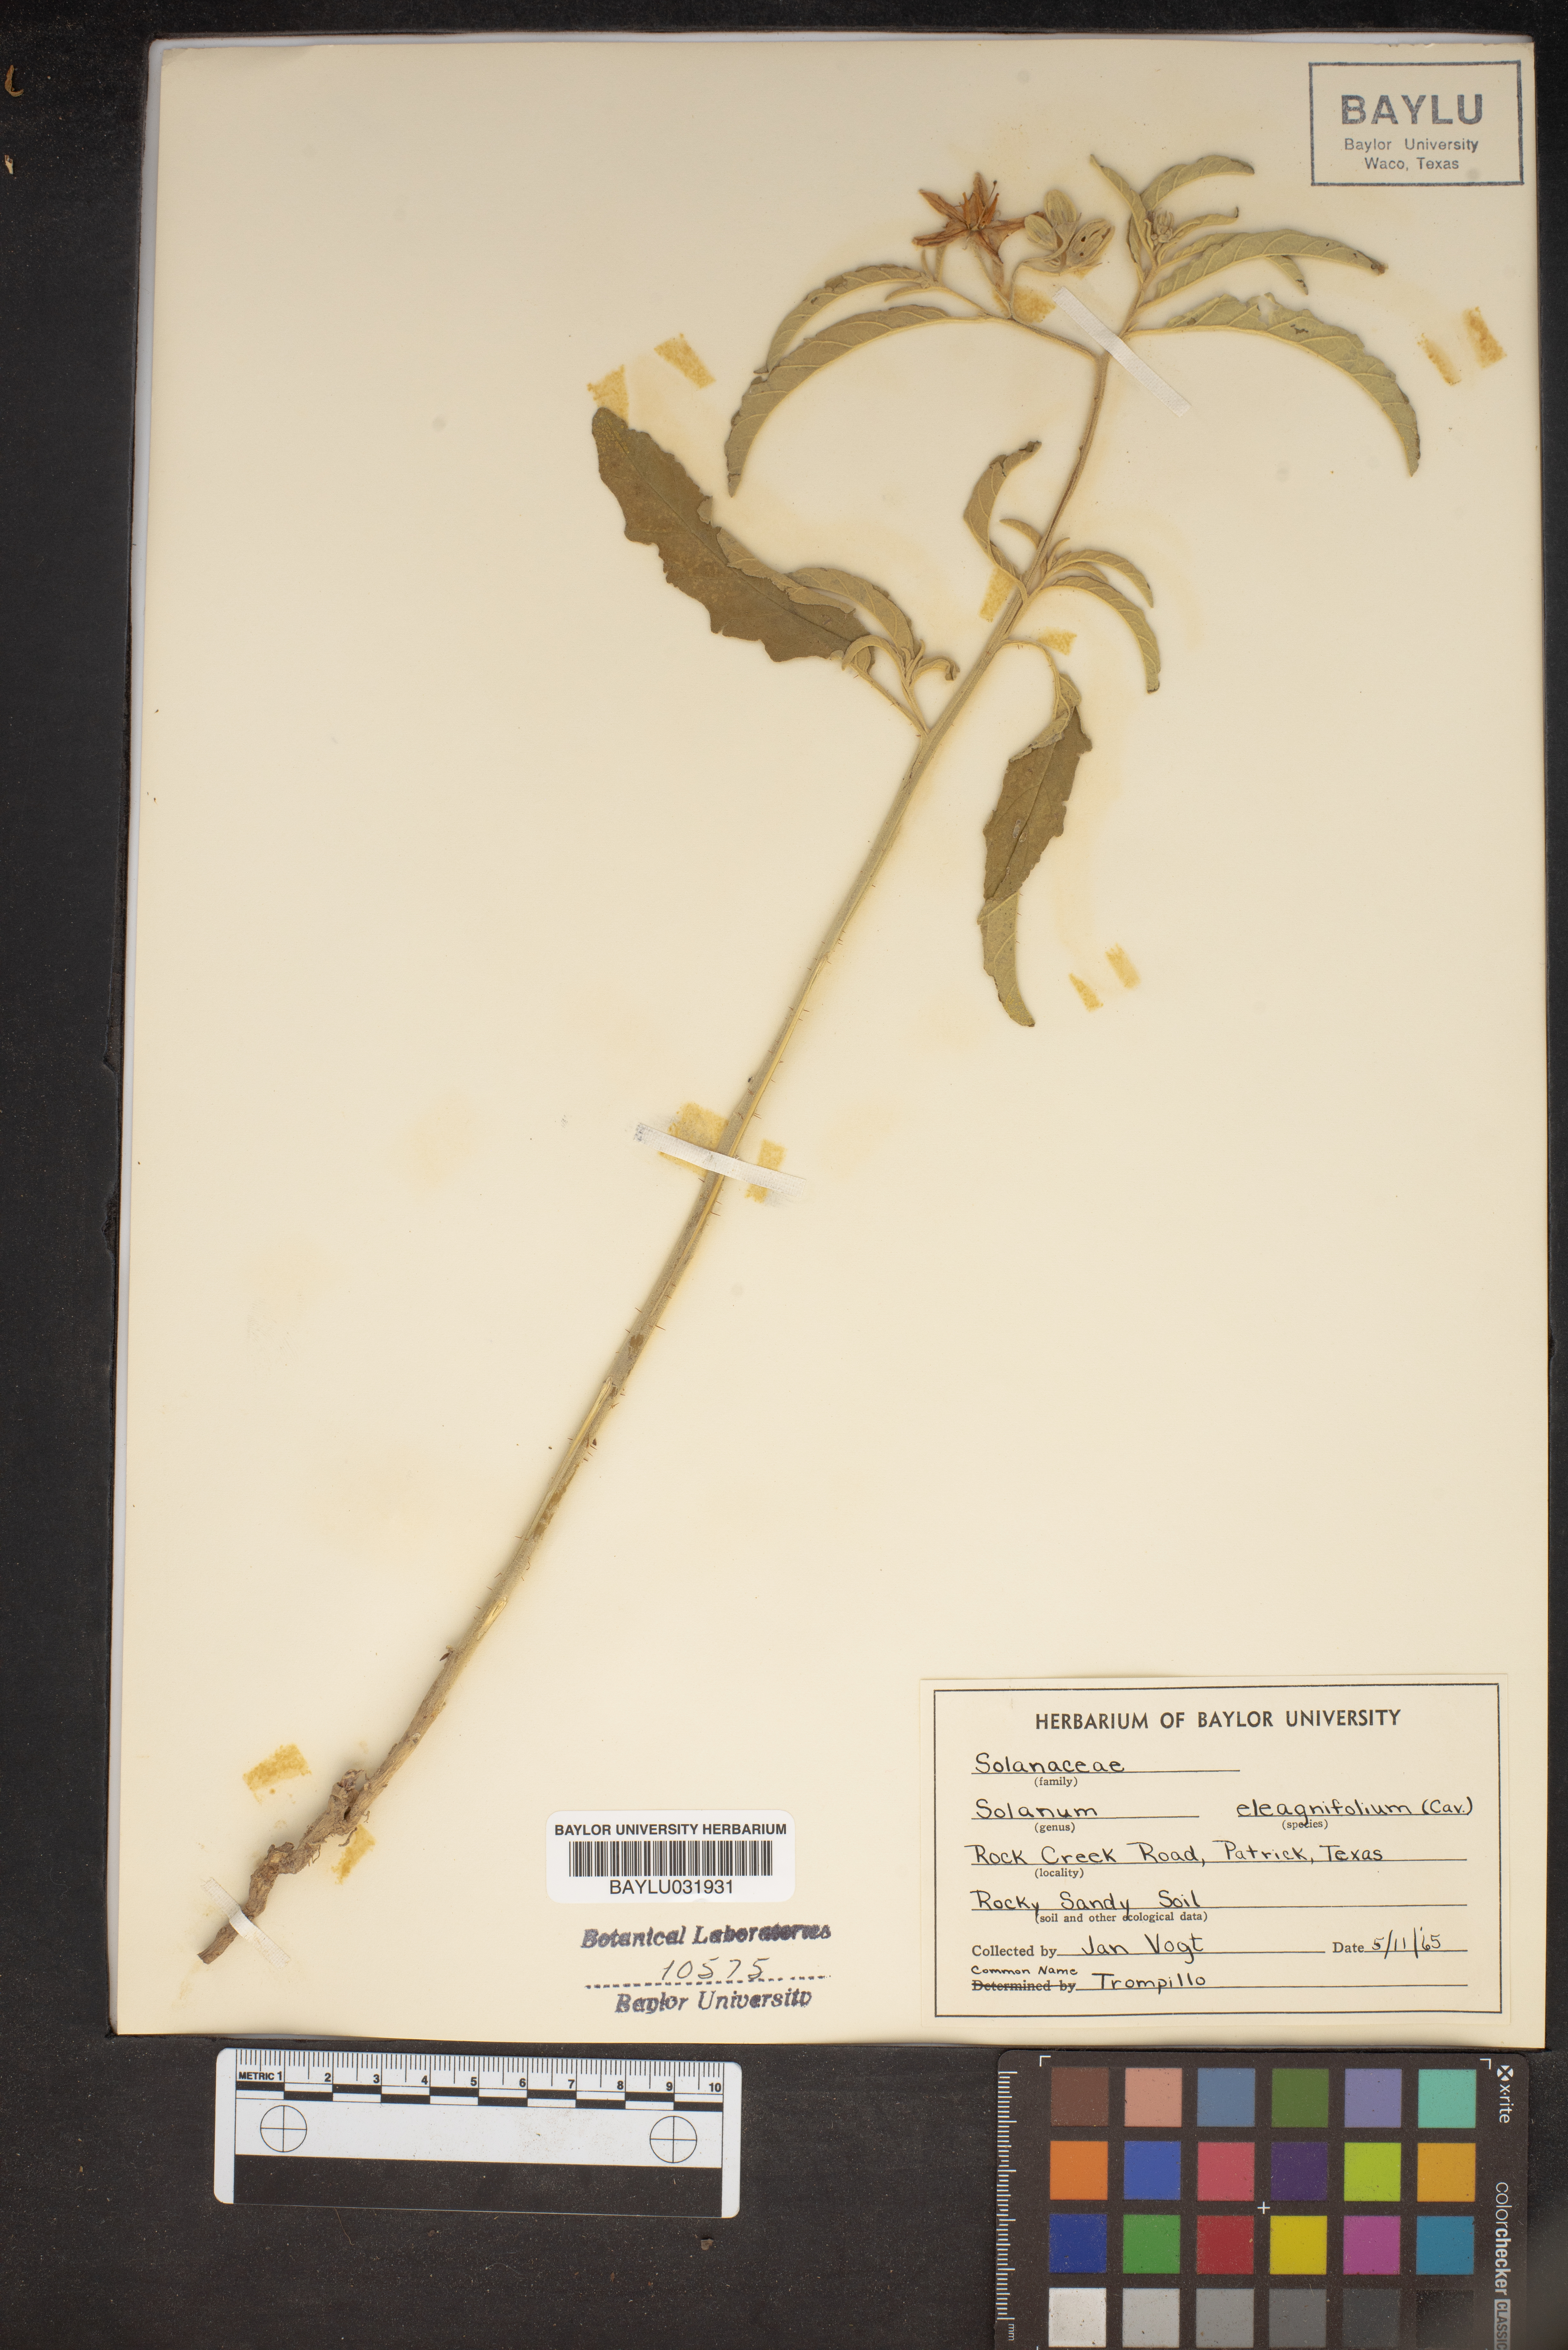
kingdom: Plantae
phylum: Tracheophyta
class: Magnoliopsida
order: Solanales
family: Solanaceae
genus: Solanum
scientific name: Solanum elaeagnifolium
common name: Silverleaf nightshade
